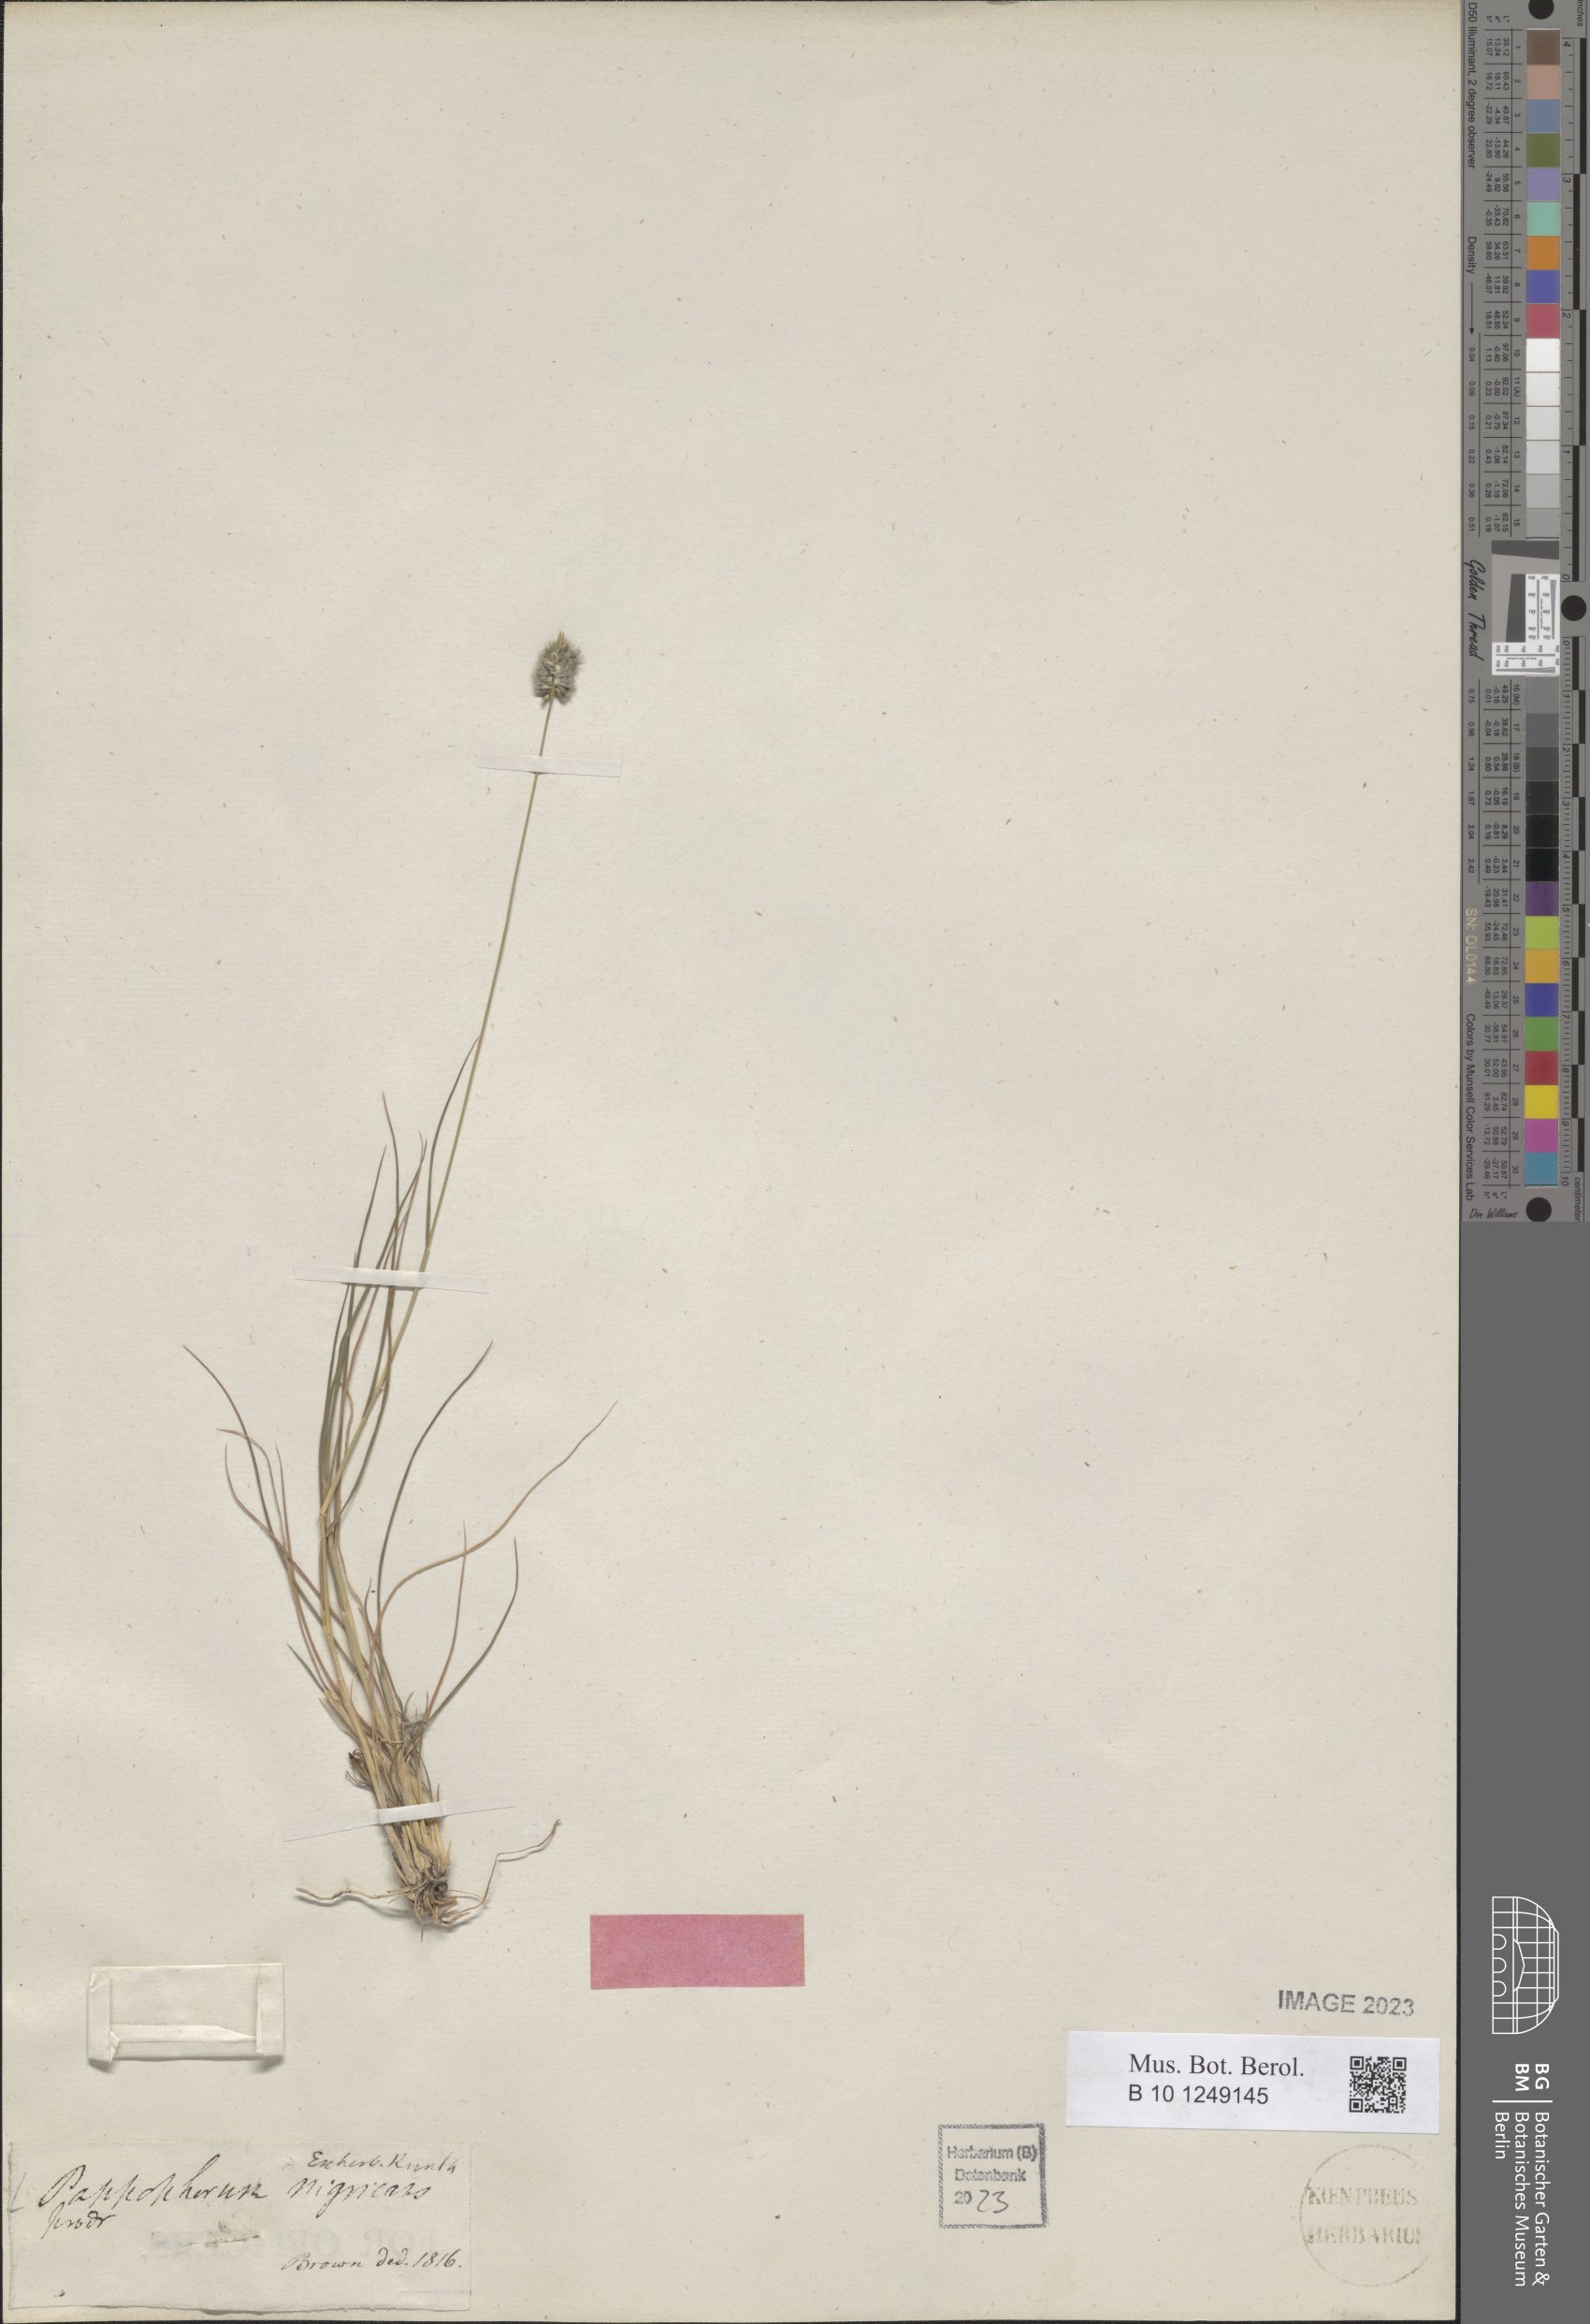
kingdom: Plantae
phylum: Tracheophyta
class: Liliopsida
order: Poales
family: Poaceae
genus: Enneapogon
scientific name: Enneapogon nigricans
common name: Pappus grass
